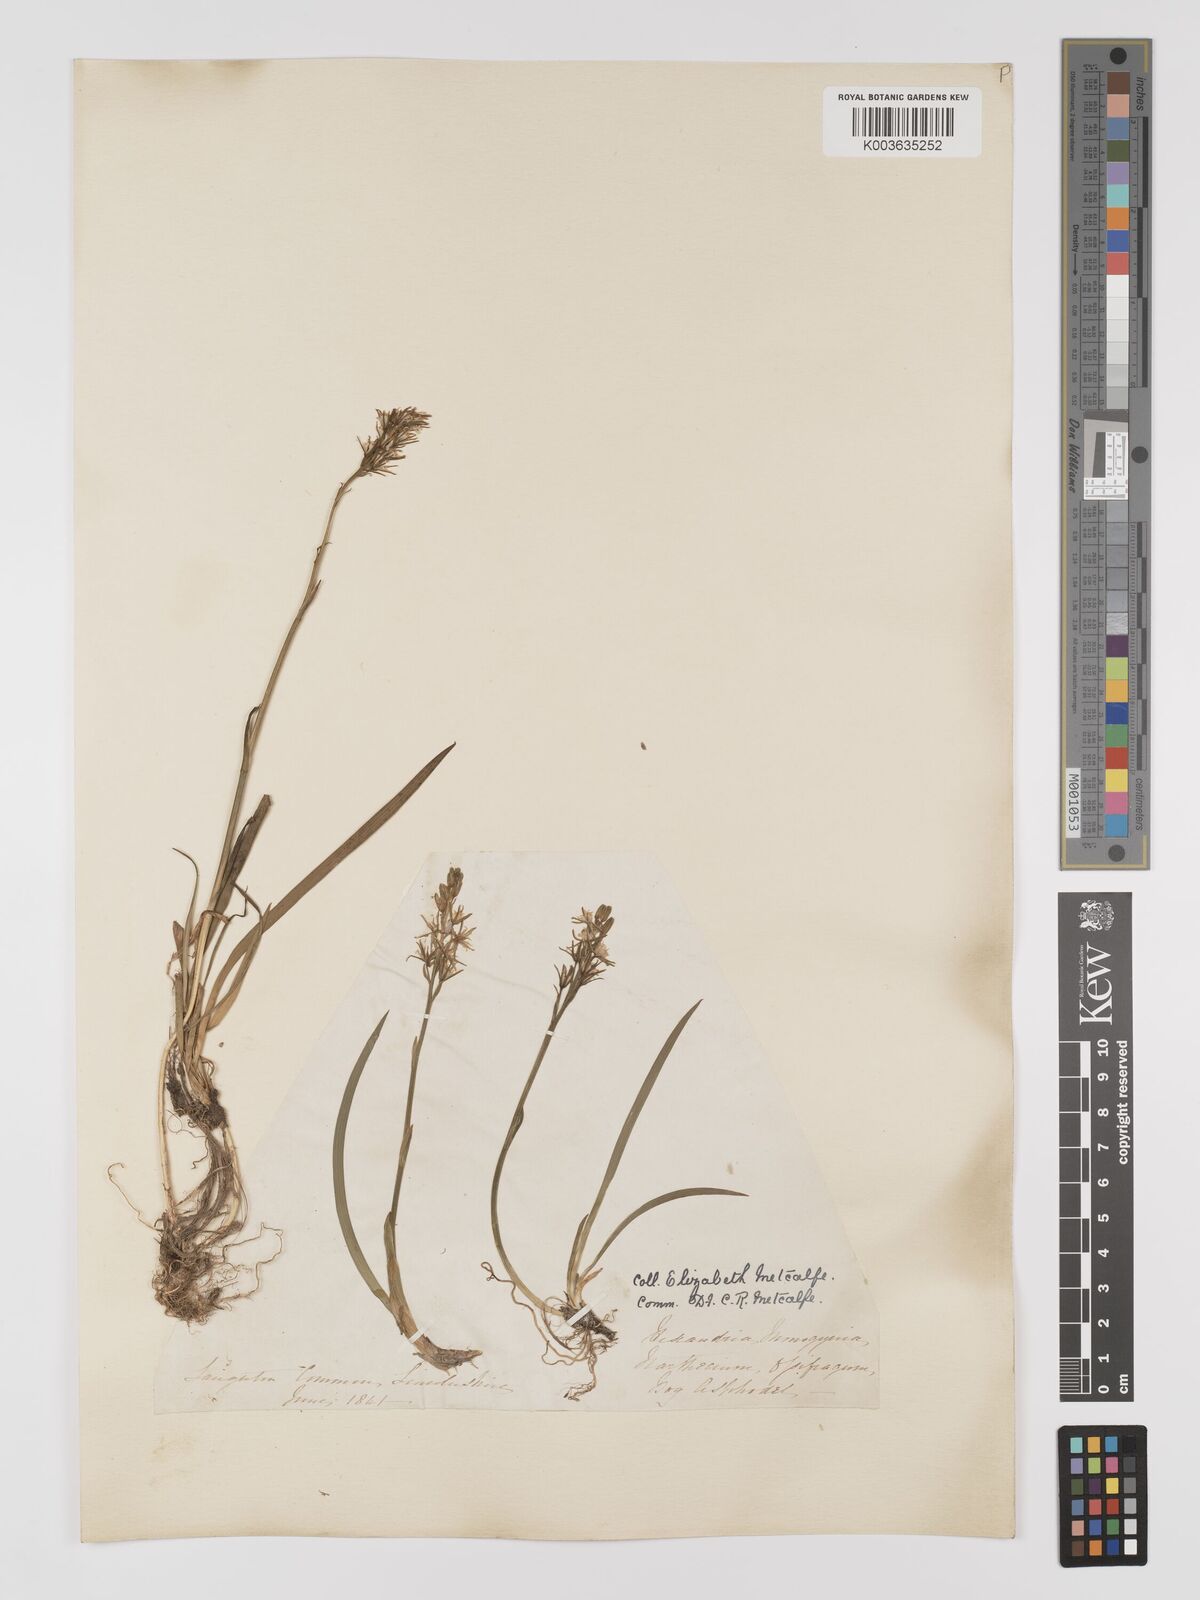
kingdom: Plantae
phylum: Tracheophyta
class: Liliopsida
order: Dioscoreales
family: Nartheciaceae
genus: Narthecium
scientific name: Narthecium
